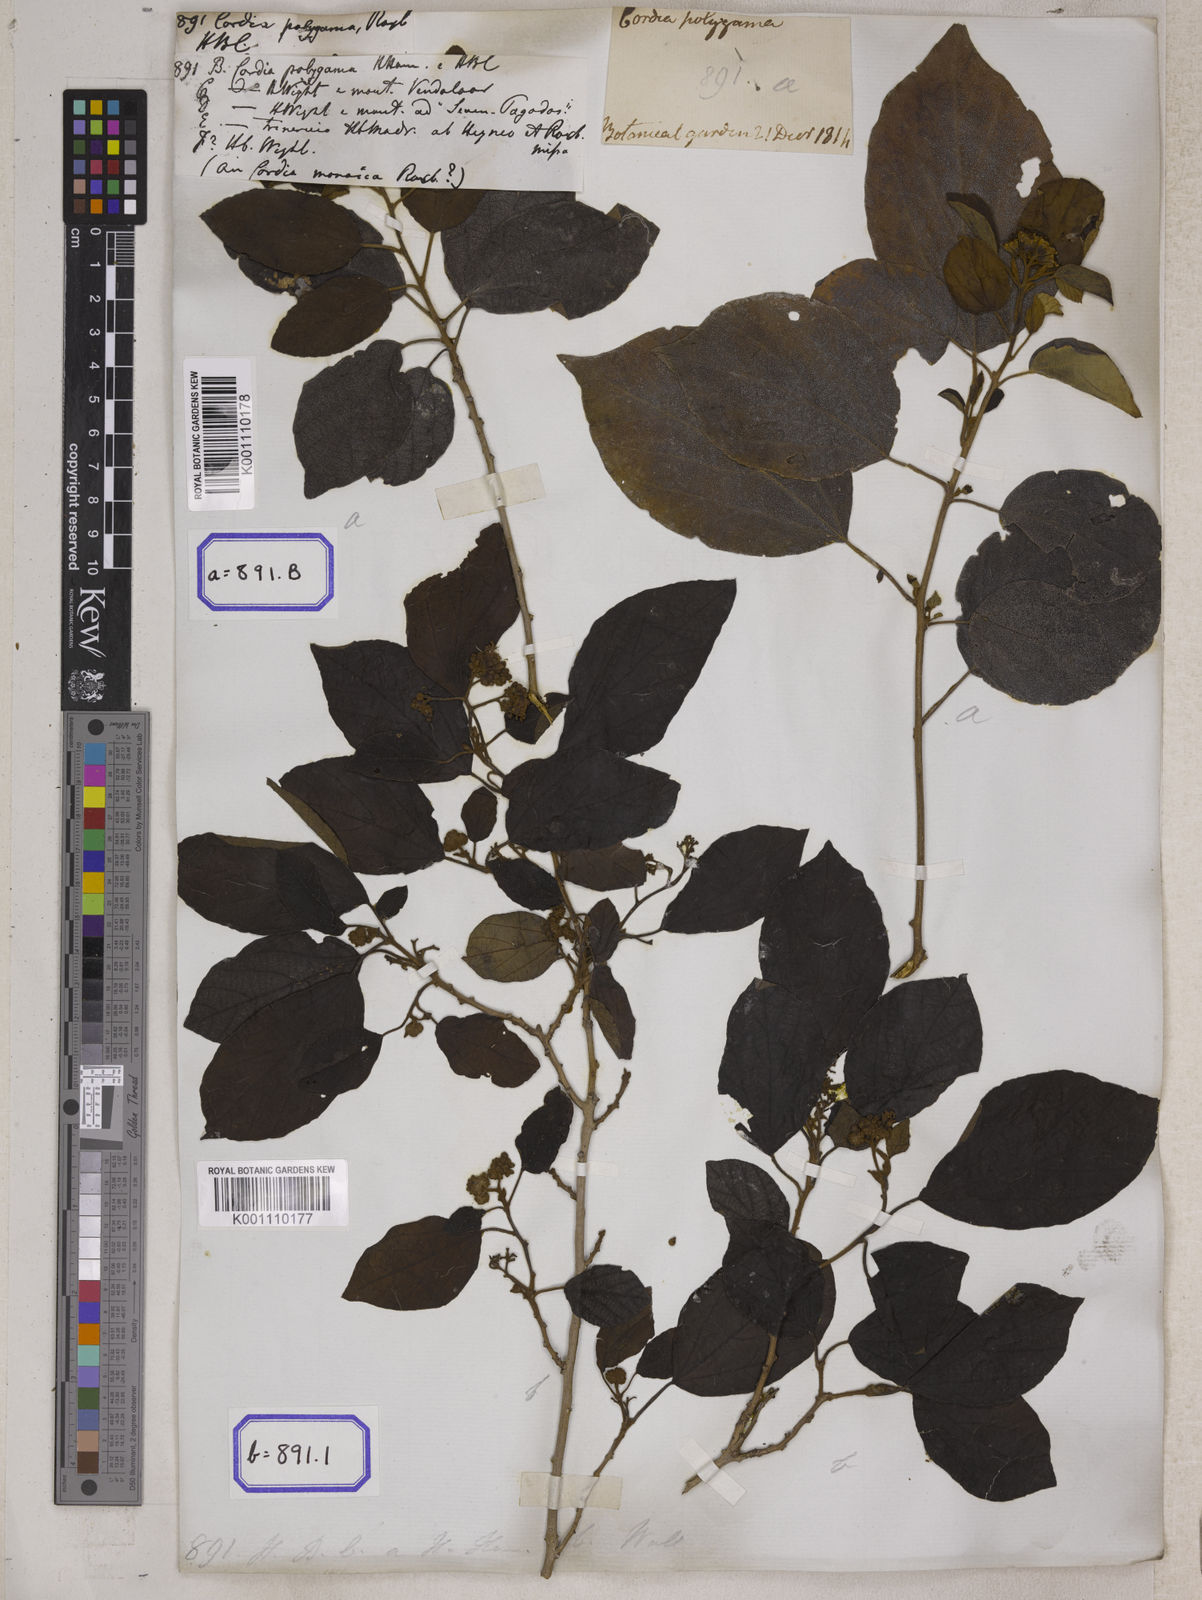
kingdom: Plantae
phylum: Tracheophyta
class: Magnoliopsida
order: Boraginales
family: Cordiaceae
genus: Cordia
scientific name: Cordia monoica
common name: Snot berry
